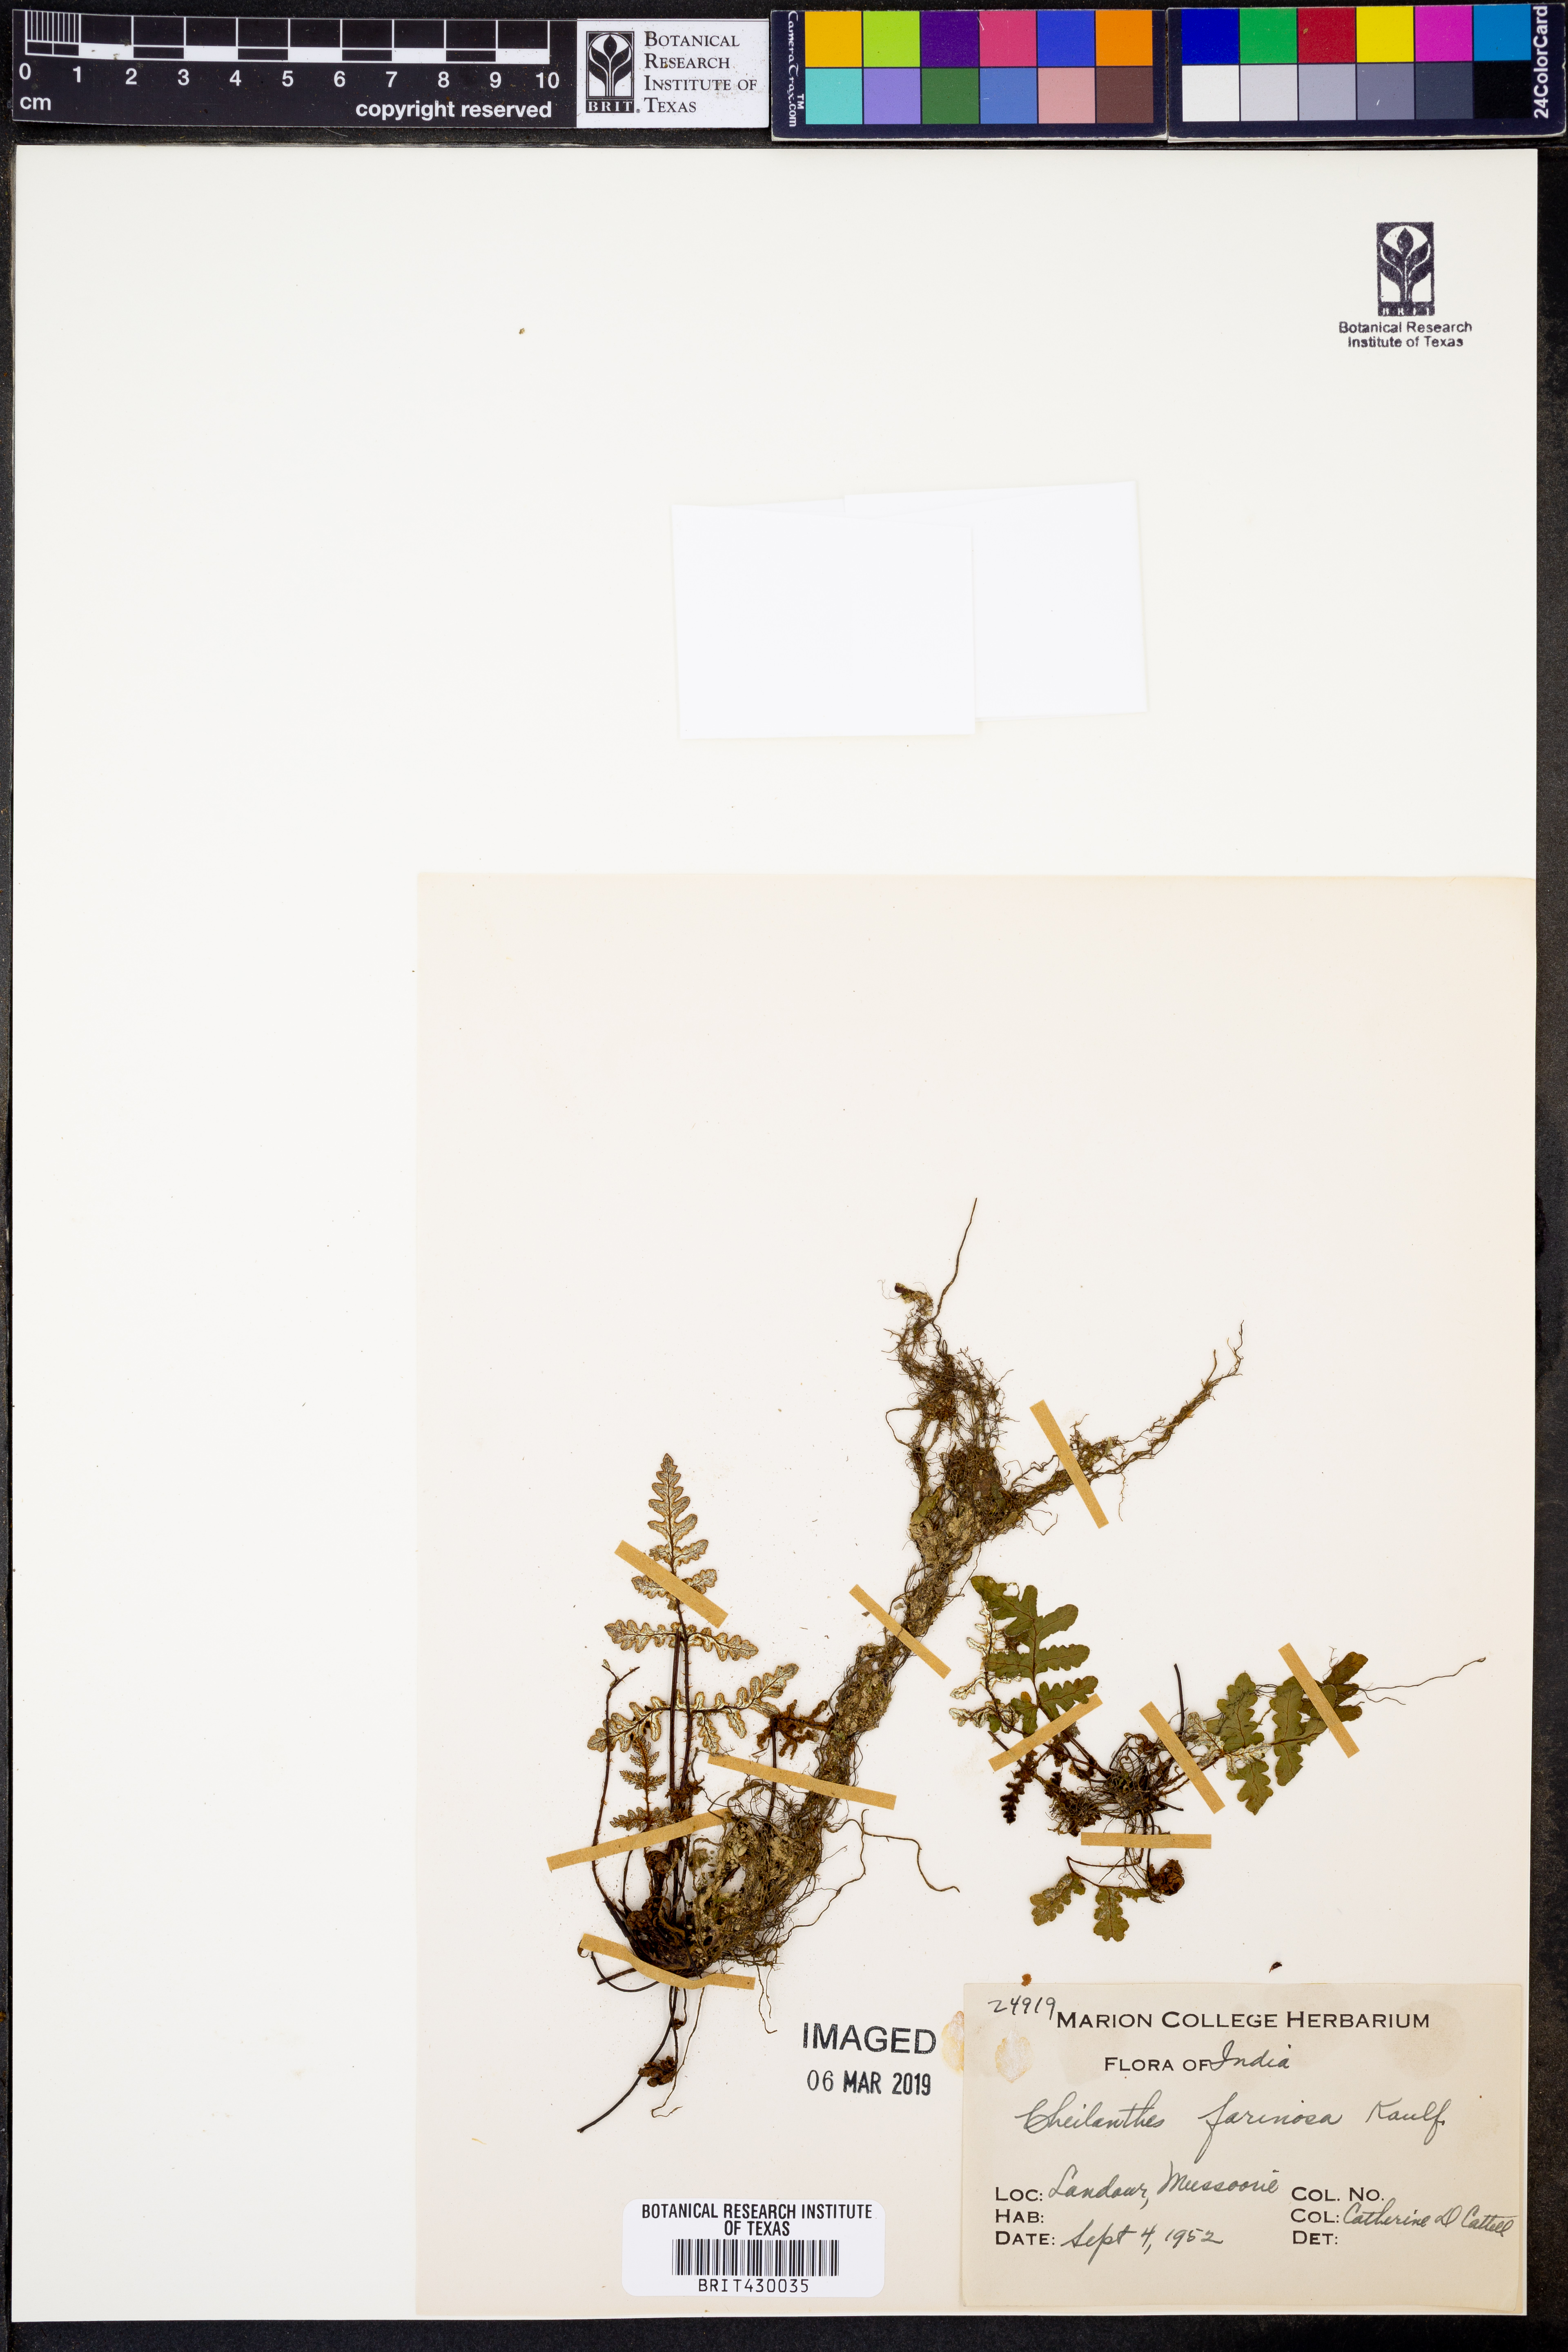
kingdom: Plantae
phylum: Tracheophyta
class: Polypodiopsida
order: Polypodiales
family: Pteridaceae
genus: Aleuritopteris
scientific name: Aleuritopteris farinosa
